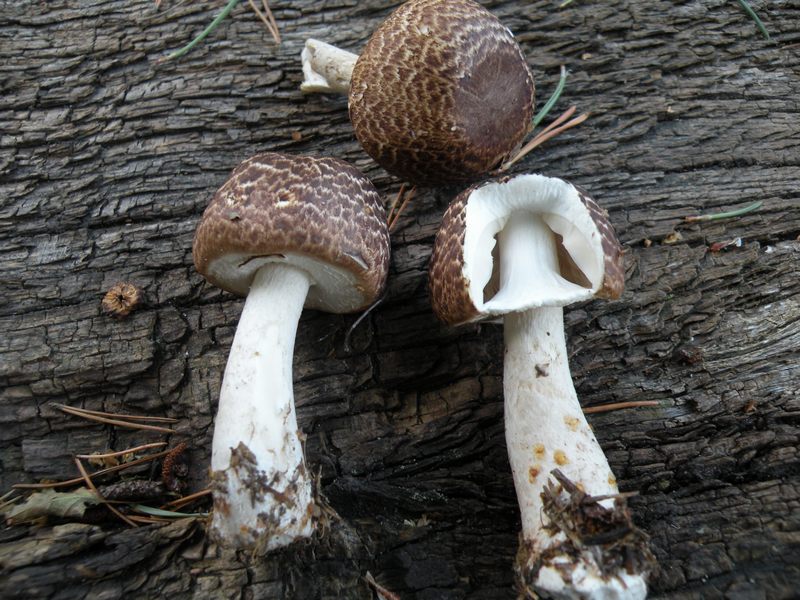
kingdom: Fungi
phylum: Basidiomycota
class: Agaricomycetes
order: Agaricales
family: Agaricaceae
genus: Agaricus
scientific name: Agaricus impudicus
